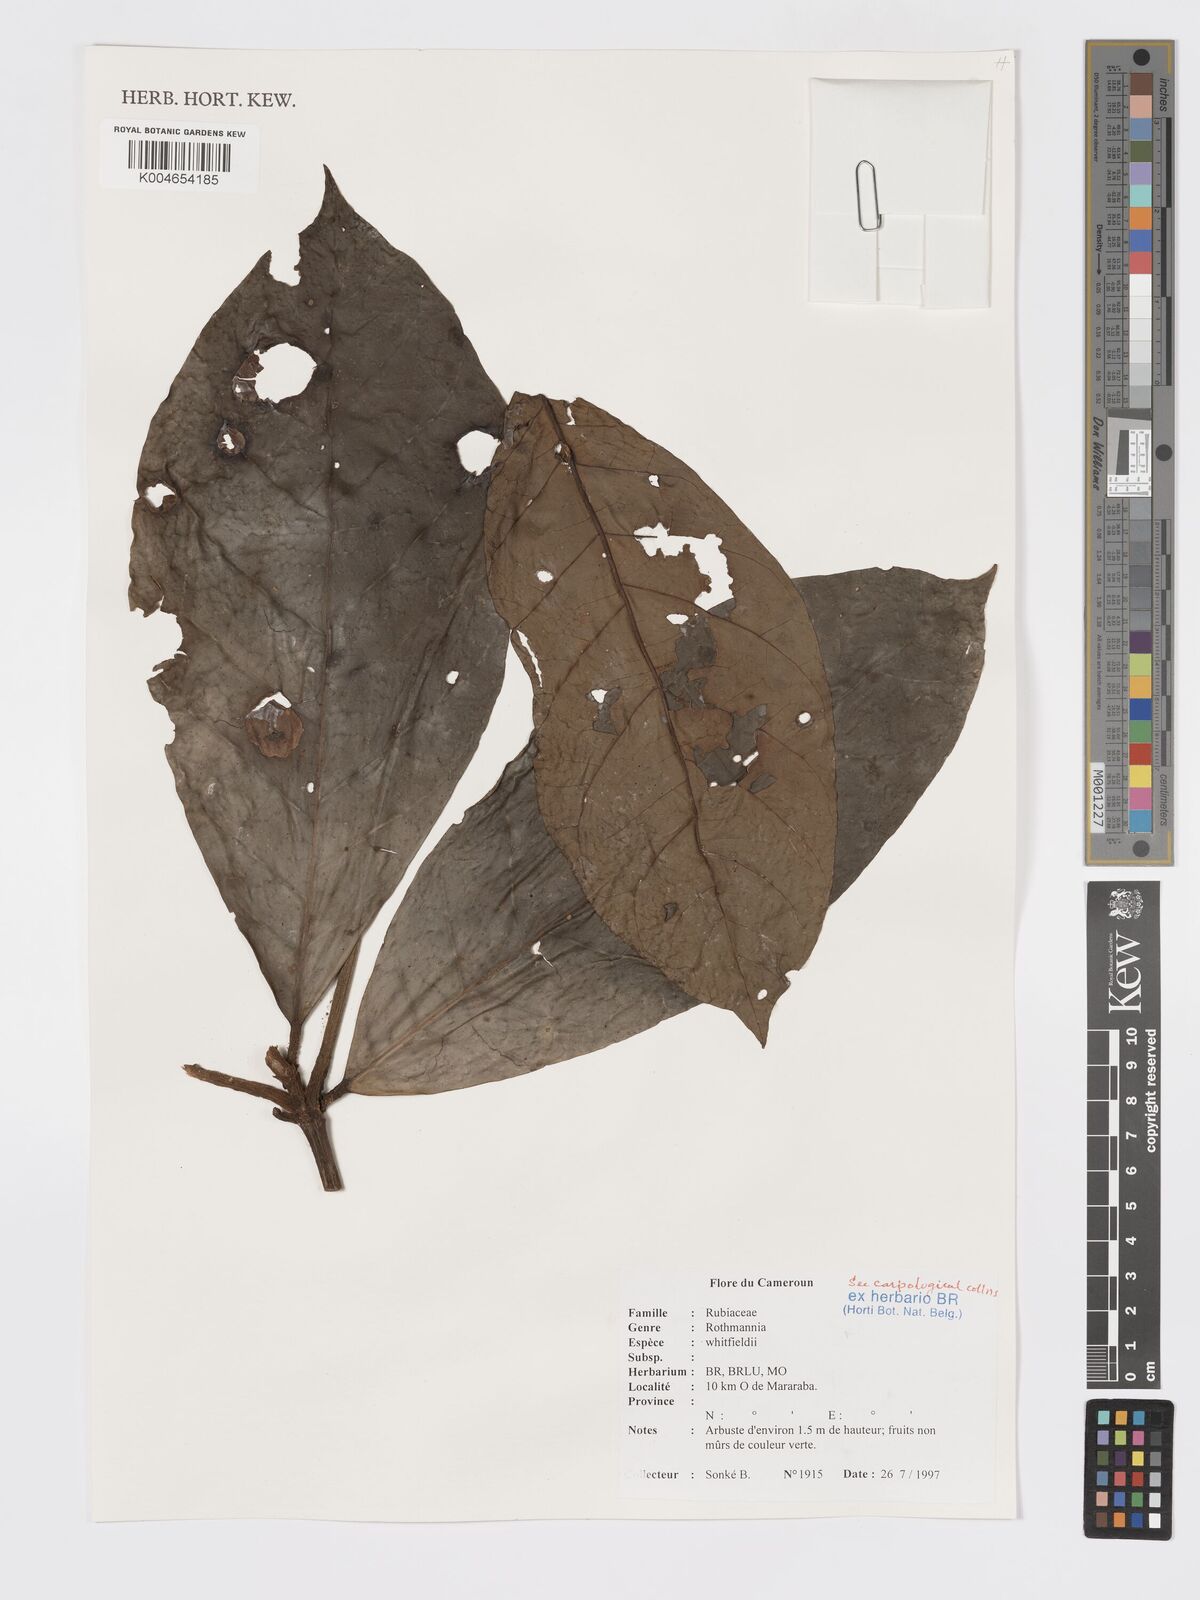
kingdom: Plantae
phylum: Tracheophyta
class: Magnoliopsida
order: Gentianales
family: Rubiaceae
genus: Rothmannia
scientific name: Rothmannia whitfieldii
